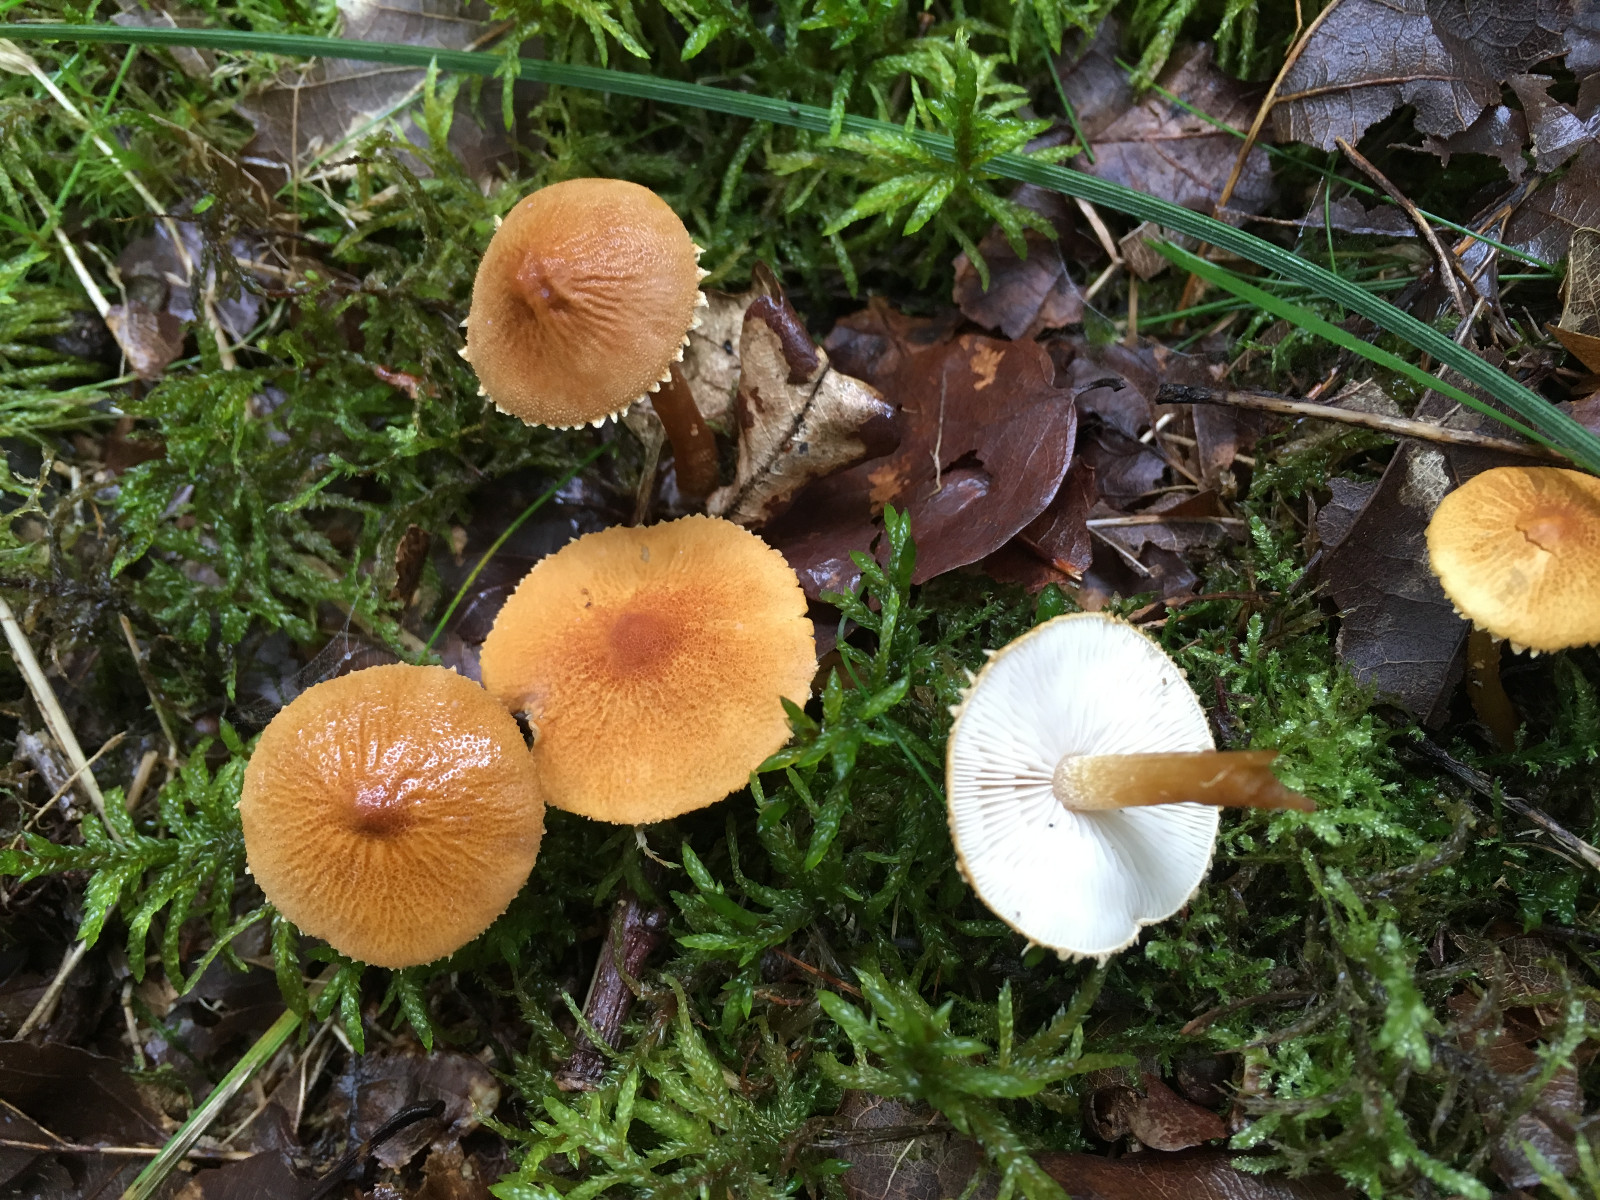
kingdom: Fungi
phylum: Basidiomycota
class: Agaricomycetes
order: Agaricales
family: Tricholomataceae
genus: Cystoderma
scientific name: Cystoderma amianthinum
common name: okkergul grynhat
